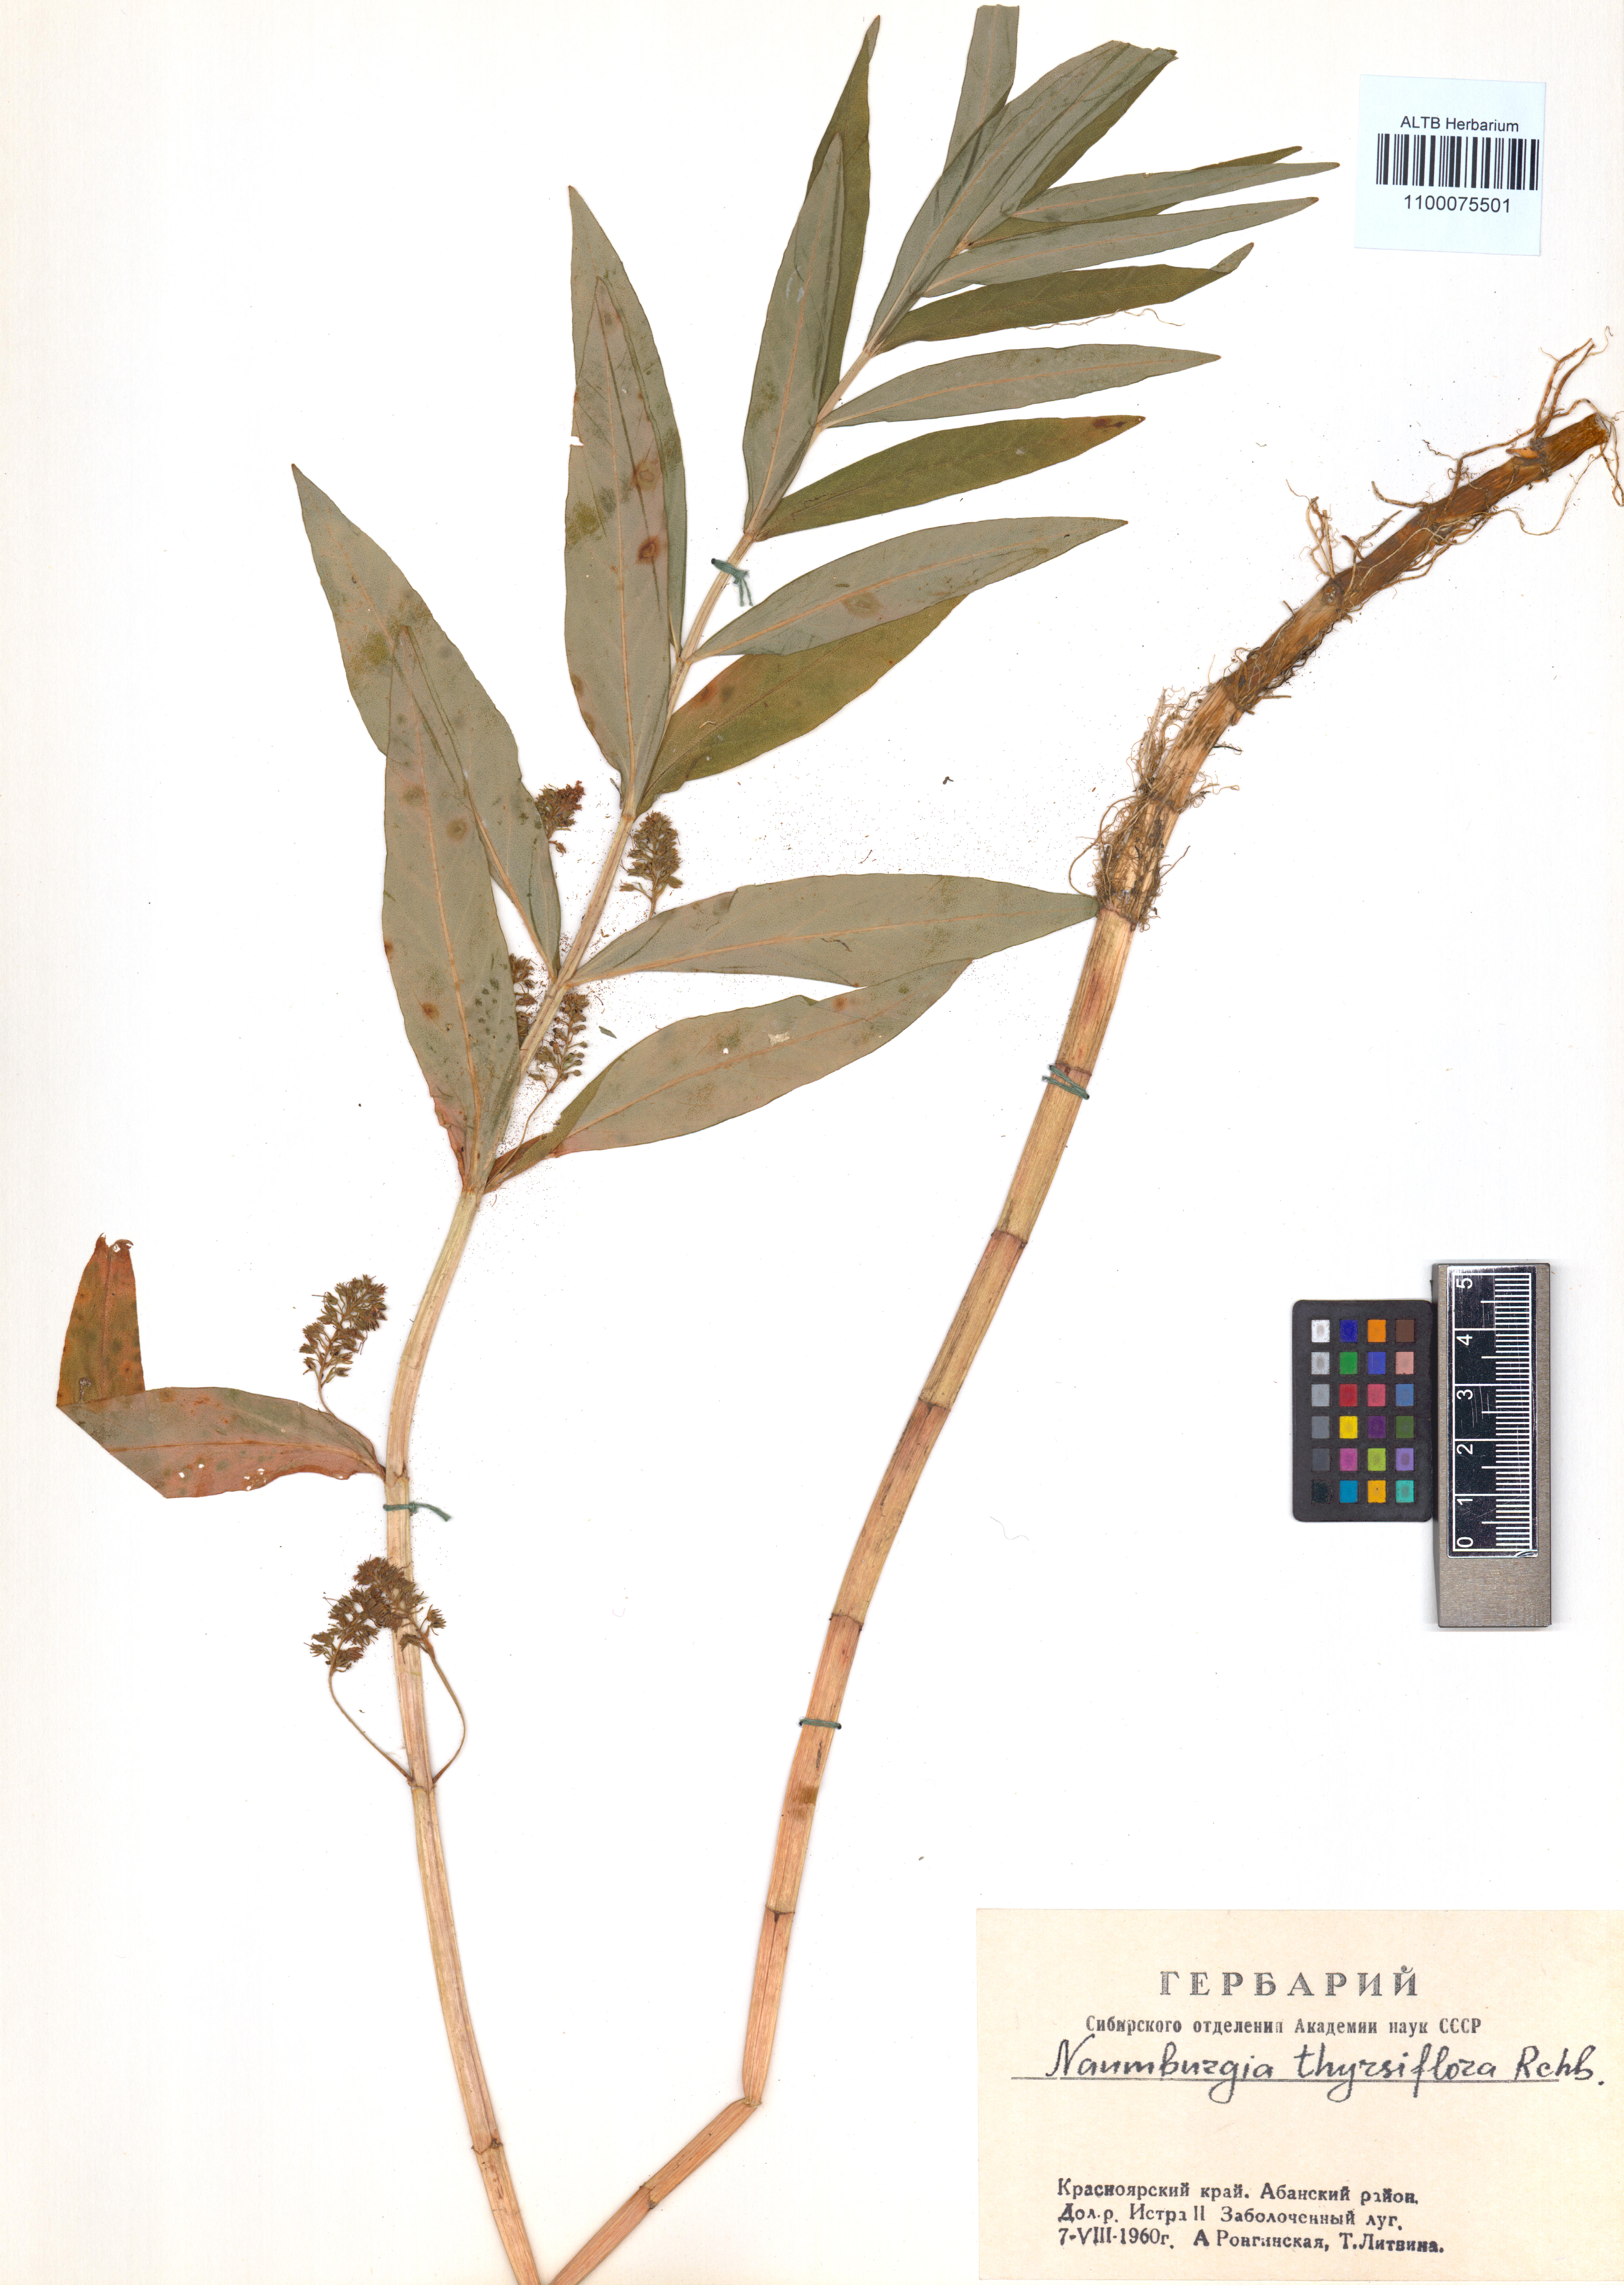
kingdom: Plantae
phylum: Tracheophyta
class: Magnoliopsida
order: Ericales
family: Primulaceae
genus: Lysimachia
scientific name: Lysimachia thyrsiflora
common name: Tufted loosestrife
